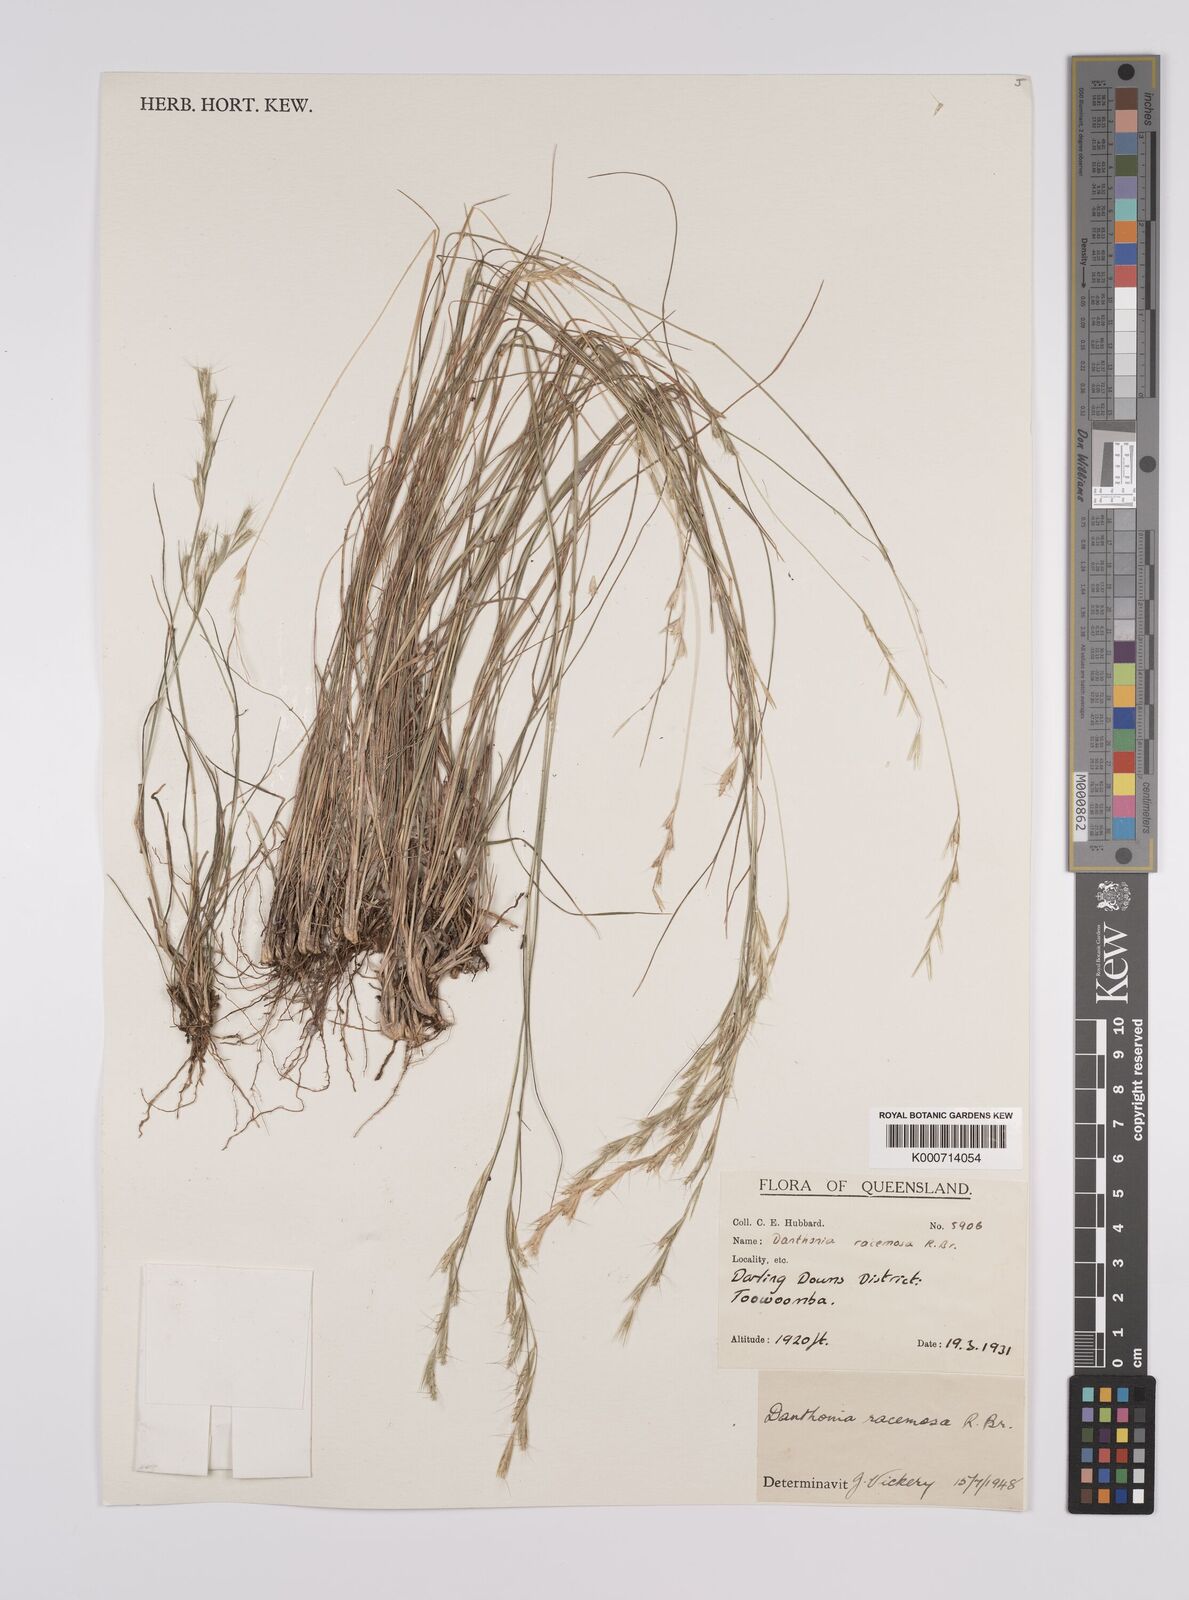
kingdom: Plantae
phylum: Tracheophyta
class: Liliopsida
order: Poales
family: Poaceae
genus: Rytidosperma
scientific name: Rytidosperma racemosum
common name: Wallaby-grass
